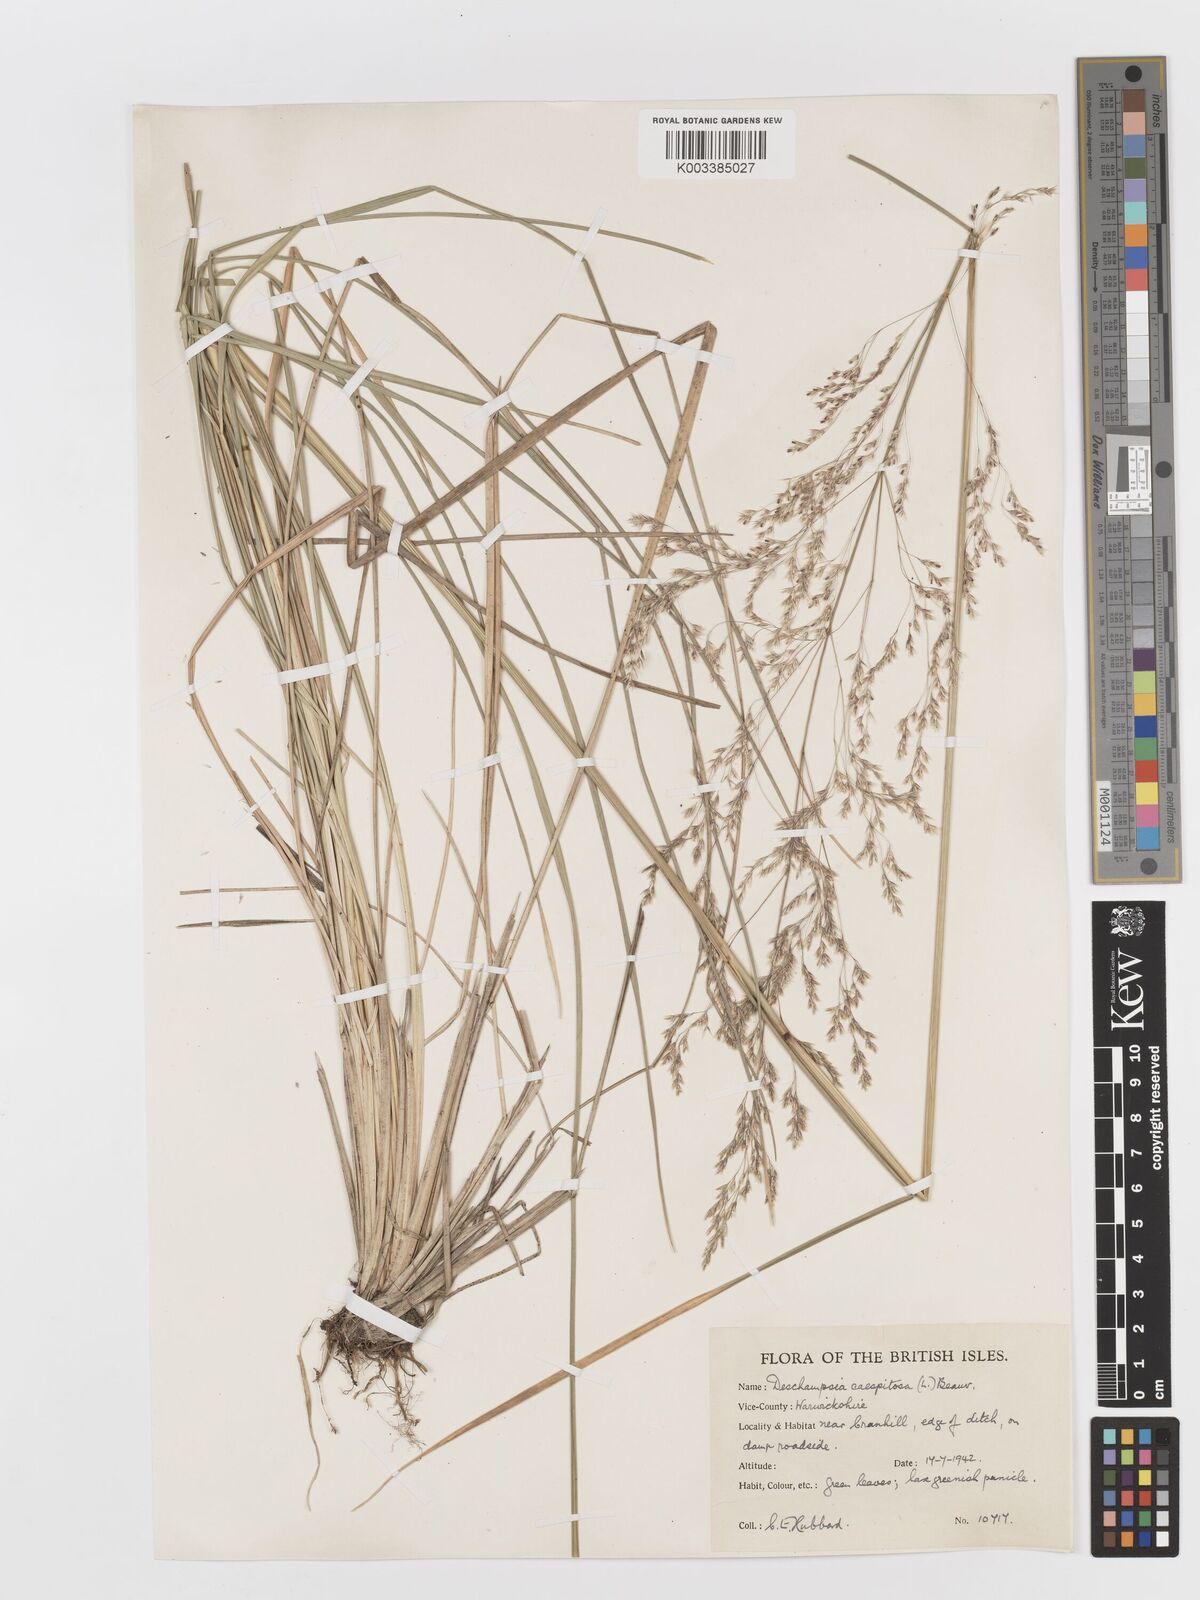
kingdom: Plantae
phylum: Tracheophyta
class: Liliopsida
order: Poales
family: Poaceae
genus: Deschampsia
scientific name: Deschampsia cespitosa
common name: Tufted hair-grass
